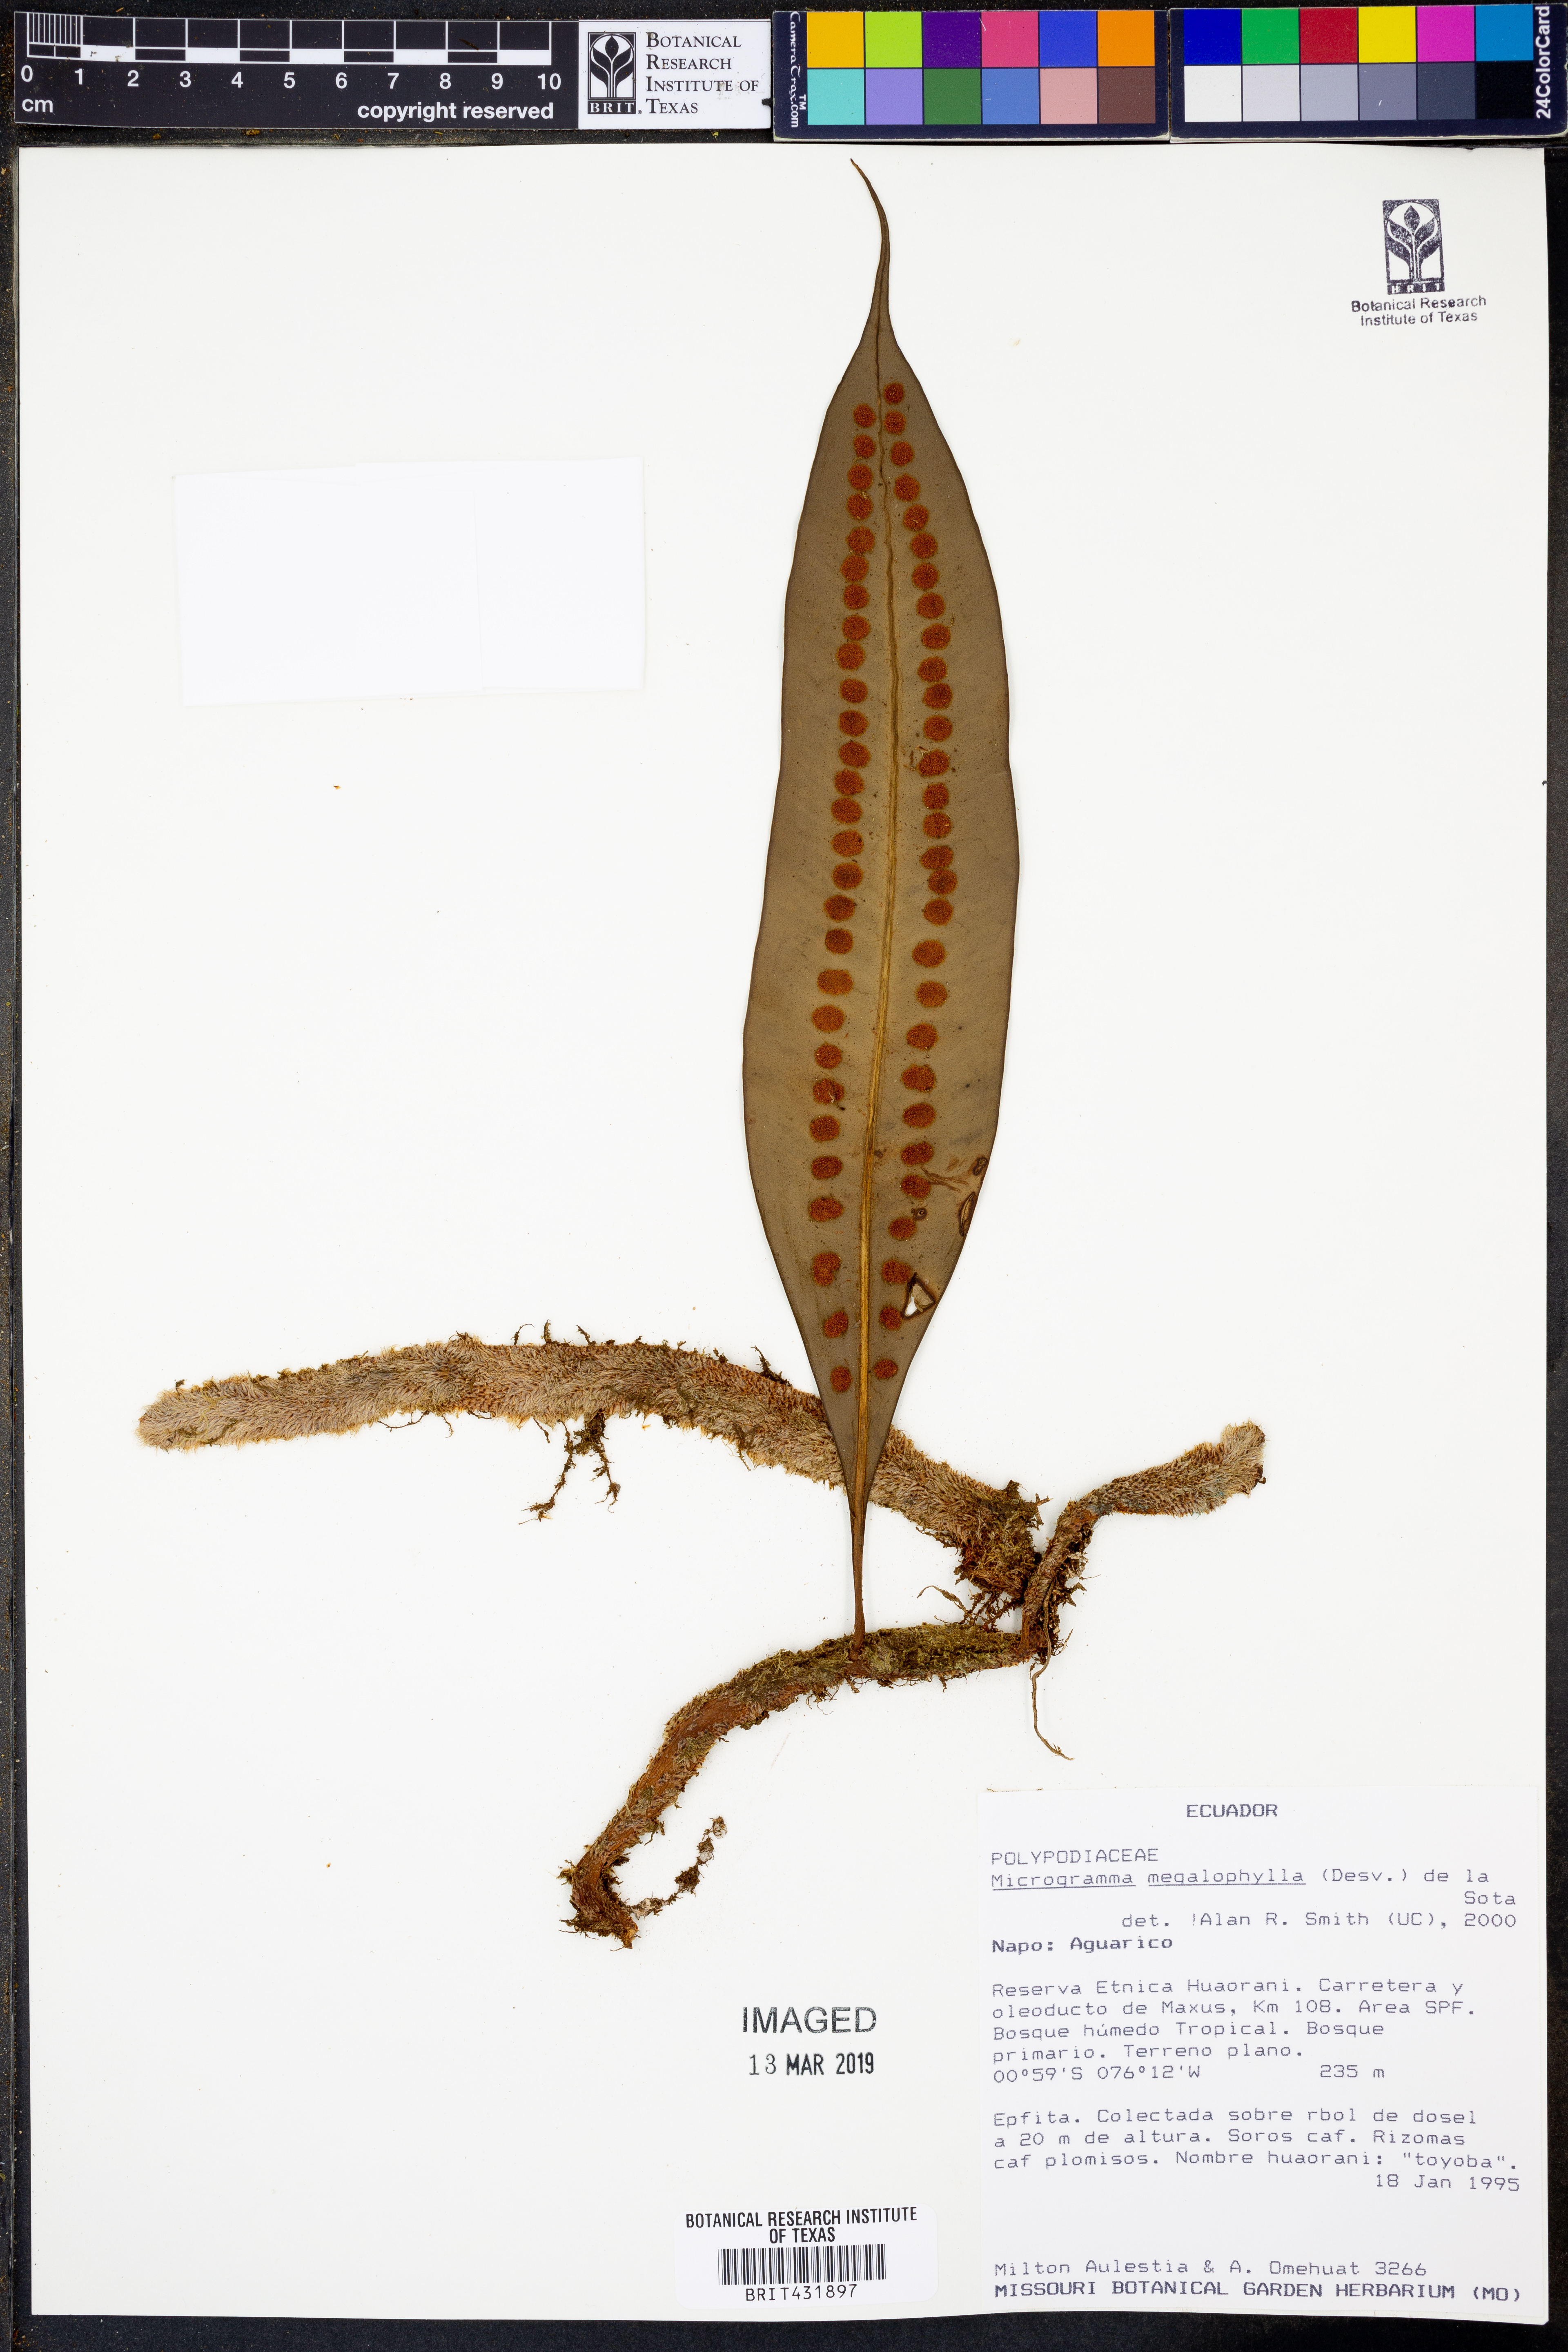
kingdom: Plantae
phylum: Tracheophyta
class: Polypodiopsida
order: Polypodiales
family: Polypodiaceae
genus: Microgramma
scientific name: Microgramma megalophylla
